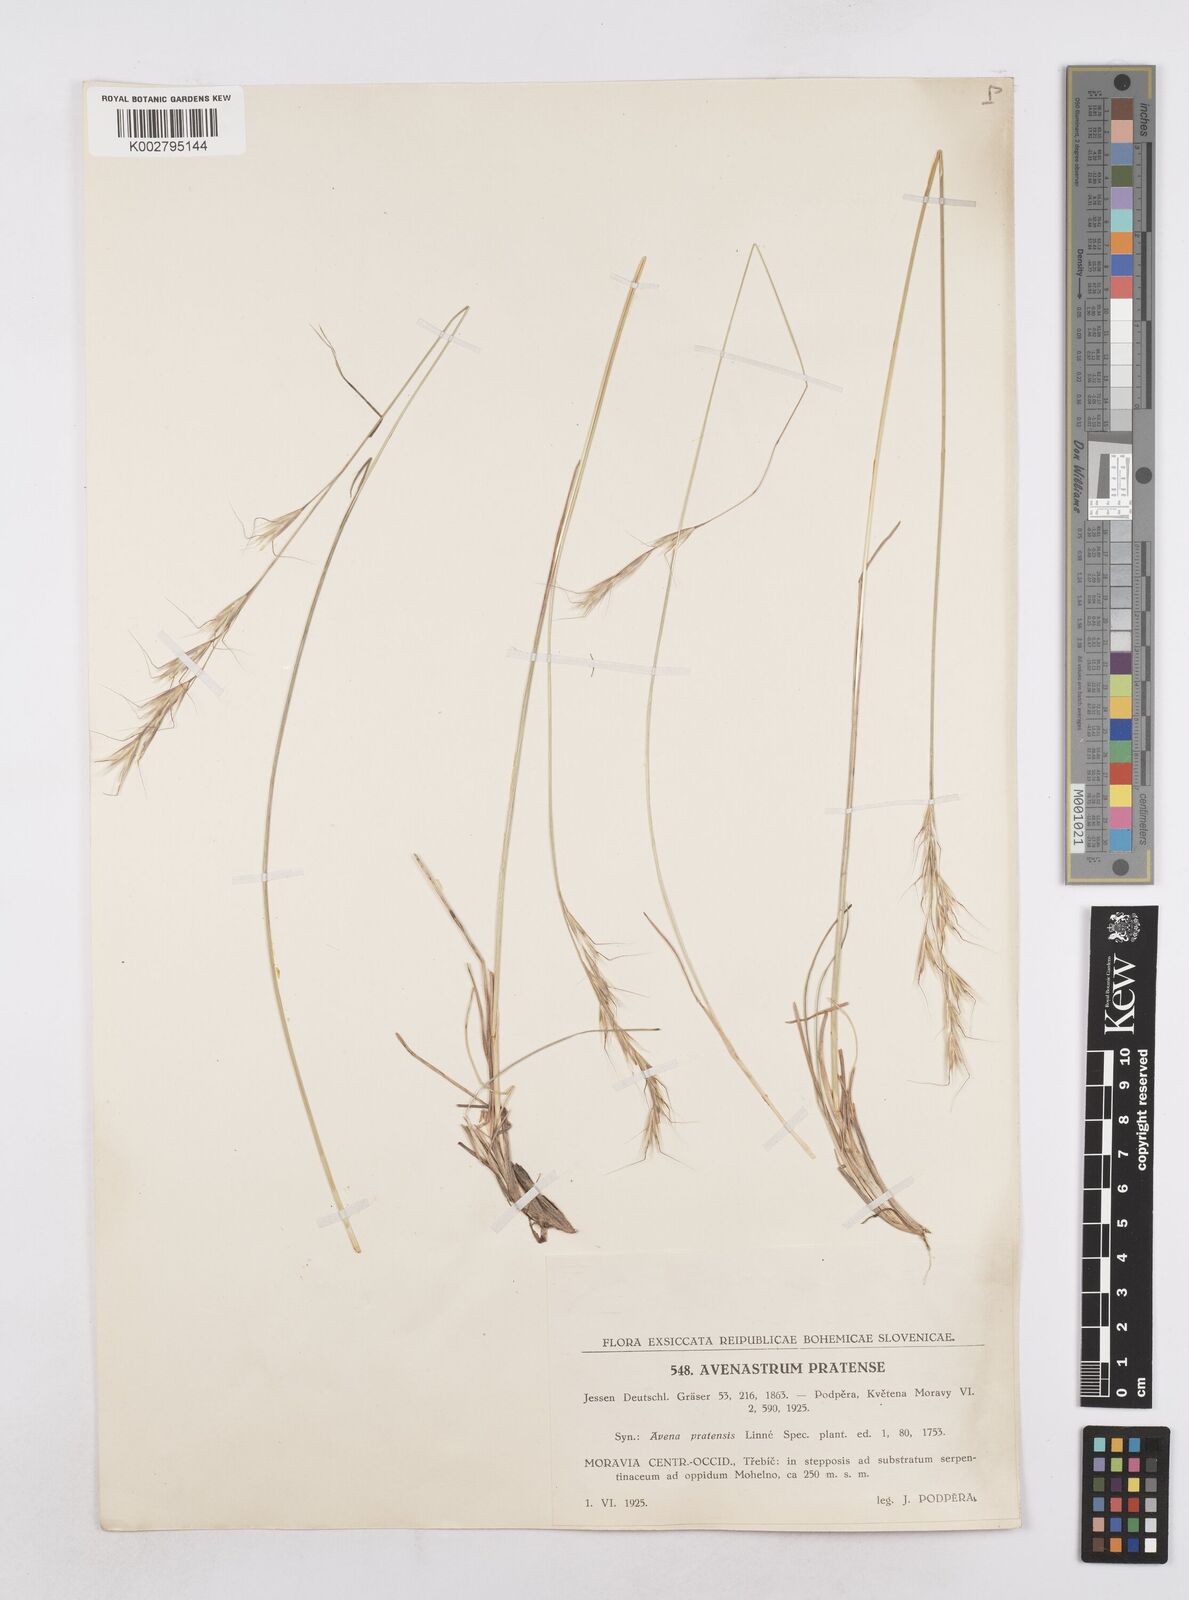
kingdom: Plantae
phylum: Tracheophyta
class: Liliopsida
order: Poales
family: Poaceae
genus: Helictochloa
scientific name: Helictochloa pratensis
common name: Meadow oat grass
